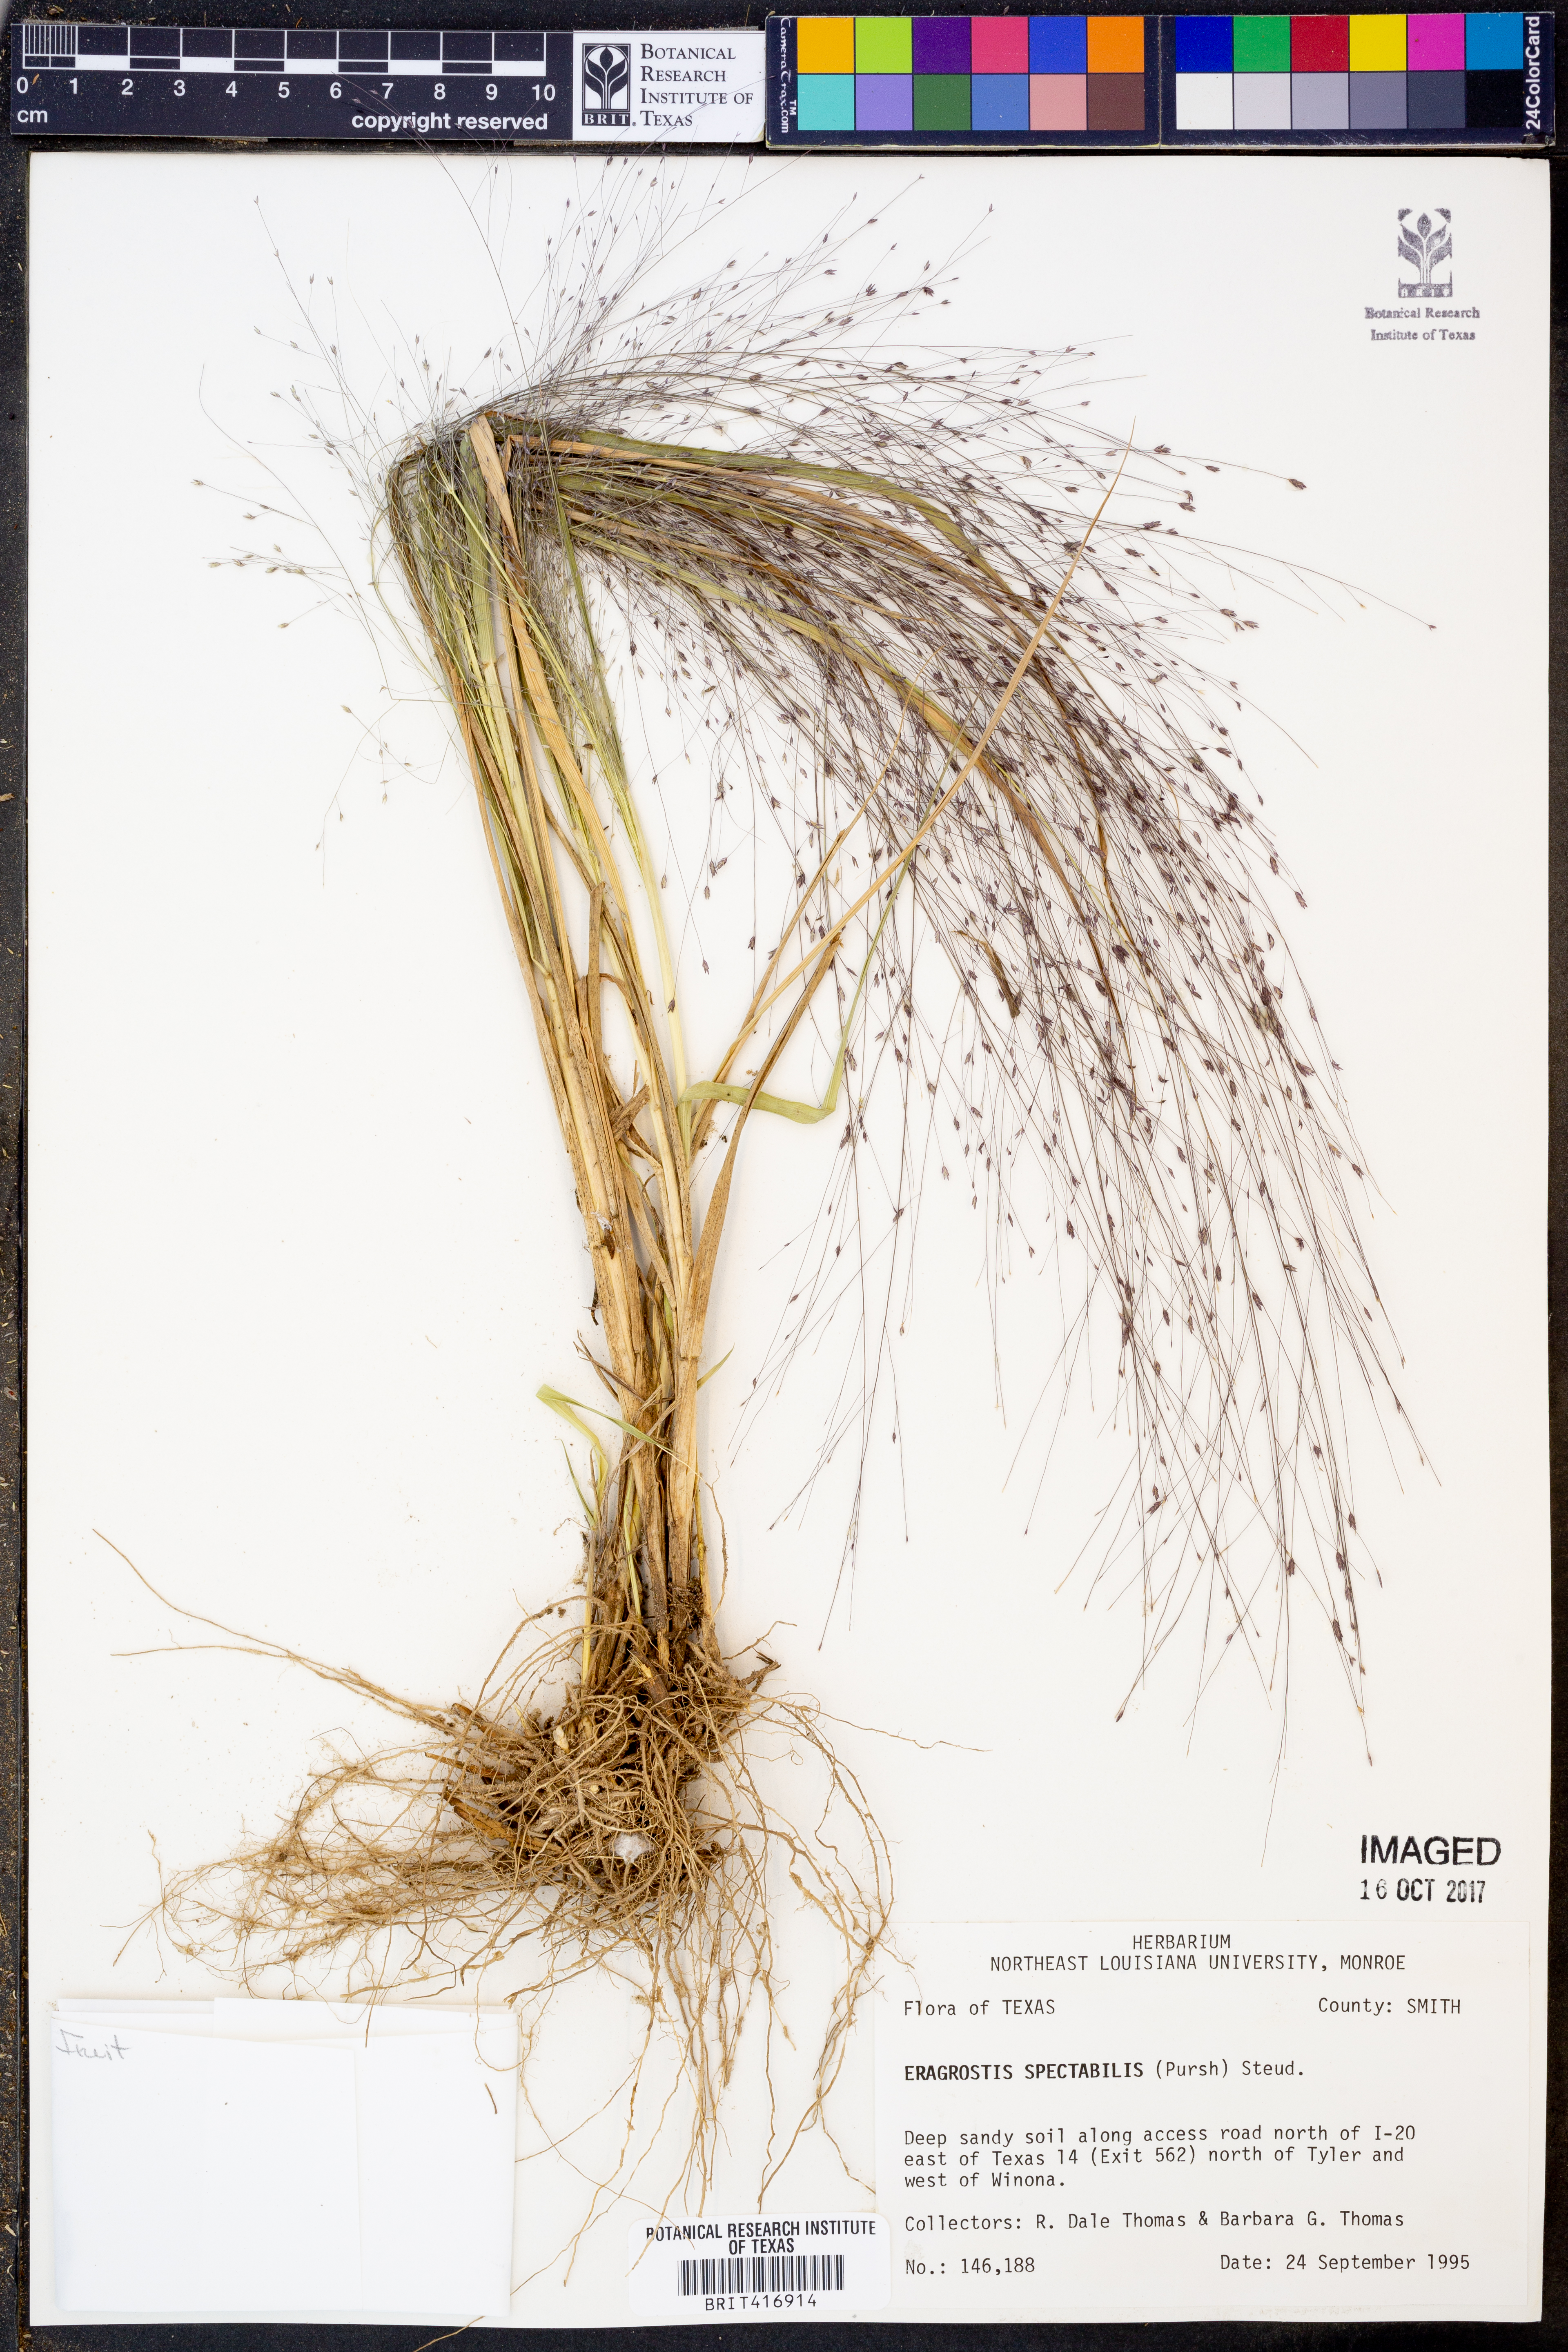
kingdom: Plantae
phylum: Tracheophyta
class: Liliopsida
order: Poales
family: Poaceae
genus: Eragrostis
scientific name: Eragrostis spectabilis
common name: Petticoat-climber
